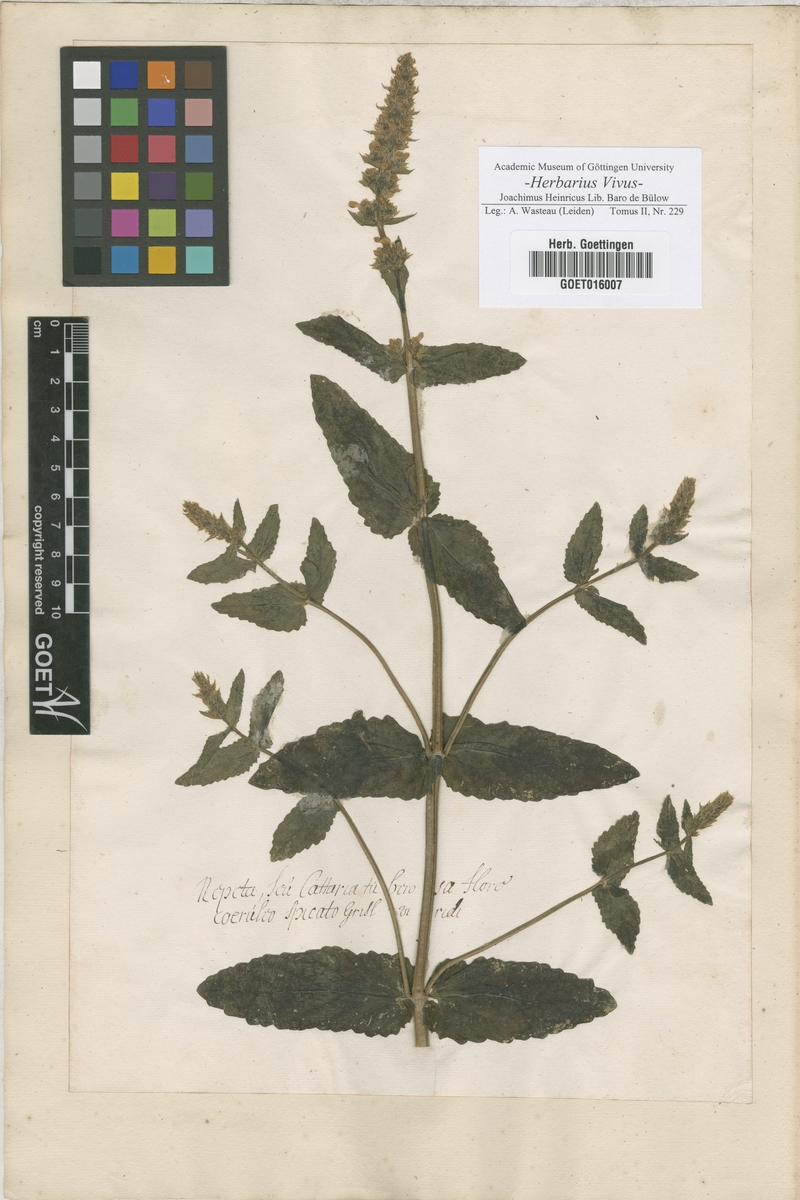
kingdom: Plantae
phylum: Tracheophyta
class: Magnoliopsida
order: Lamiales
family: Lamiaceae
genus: Nepeta
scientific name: Nepeta
